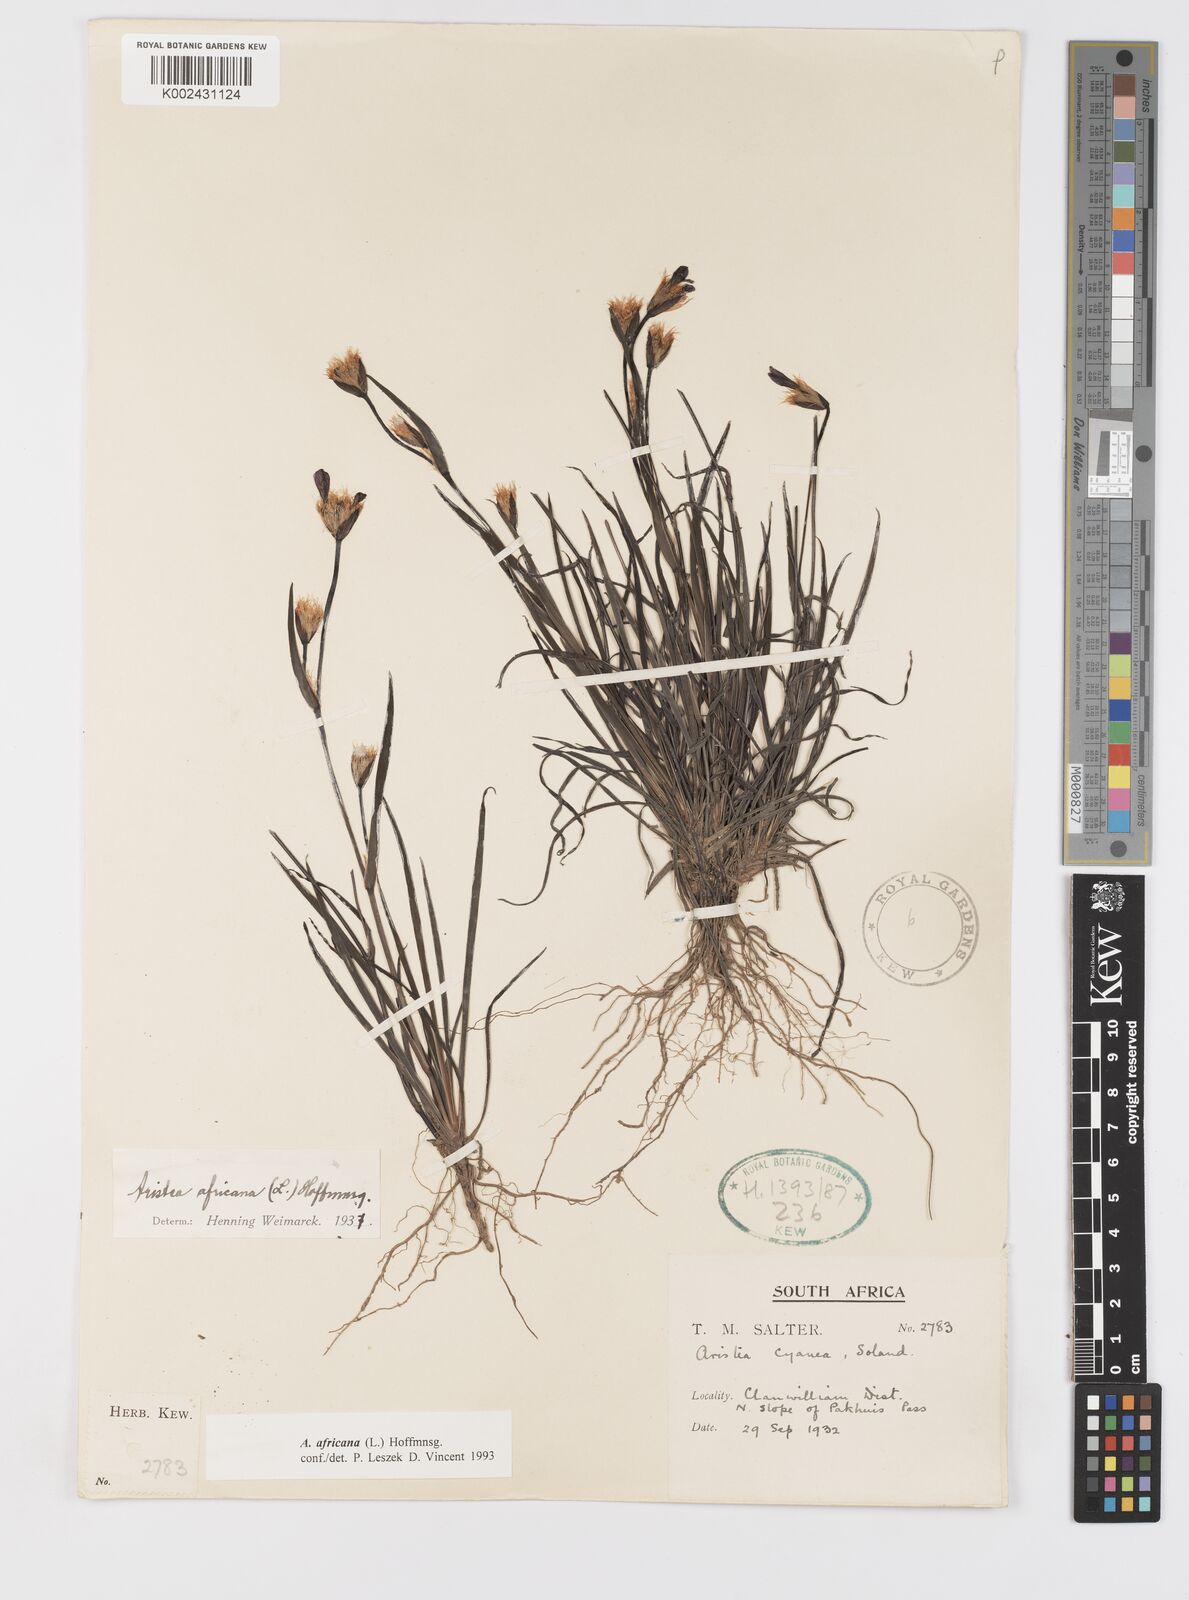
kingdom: Plantae
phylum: Tracheophyta
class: Liliopsida
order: Asparagales
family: Iridaceae
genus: Aristea
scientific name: Aristea africana
